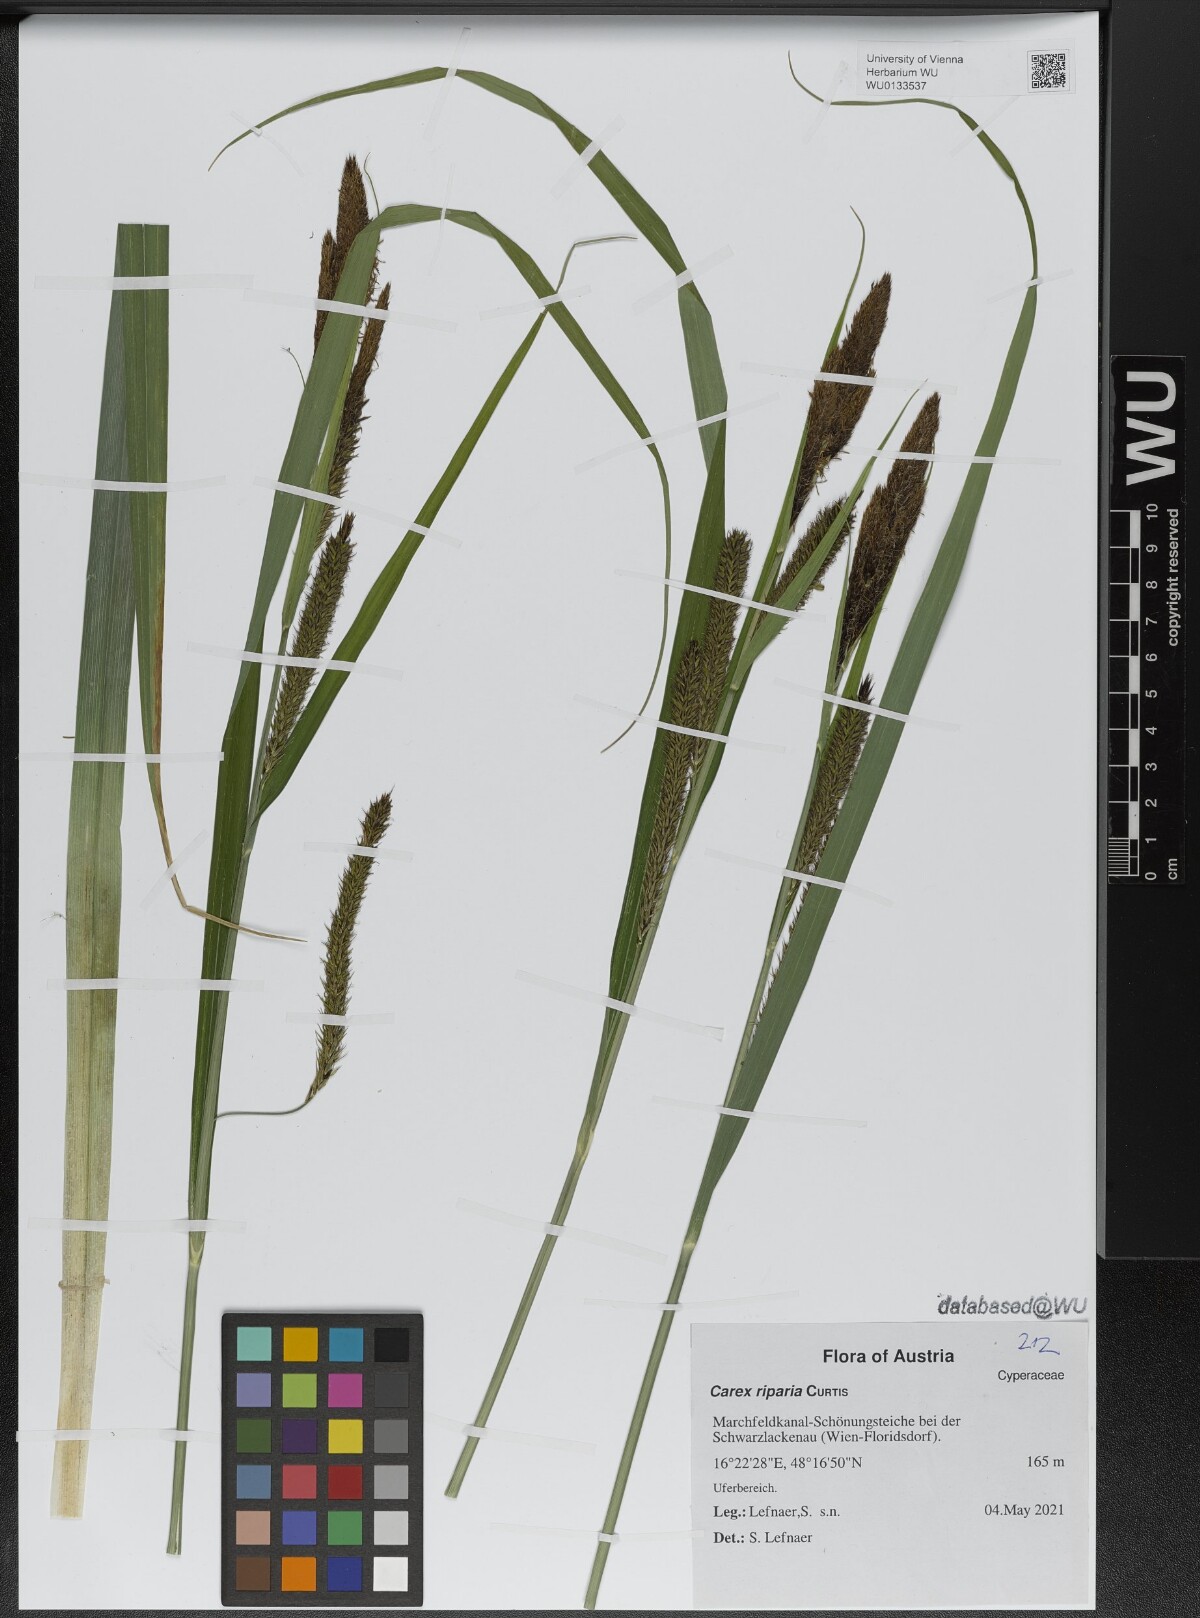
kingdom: Plantae
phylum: Tracheophyta
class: Liliopsida
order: Poales
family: Cyperaceae
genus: Carex
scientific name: Carex riparia
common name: Greater pond-sedge
